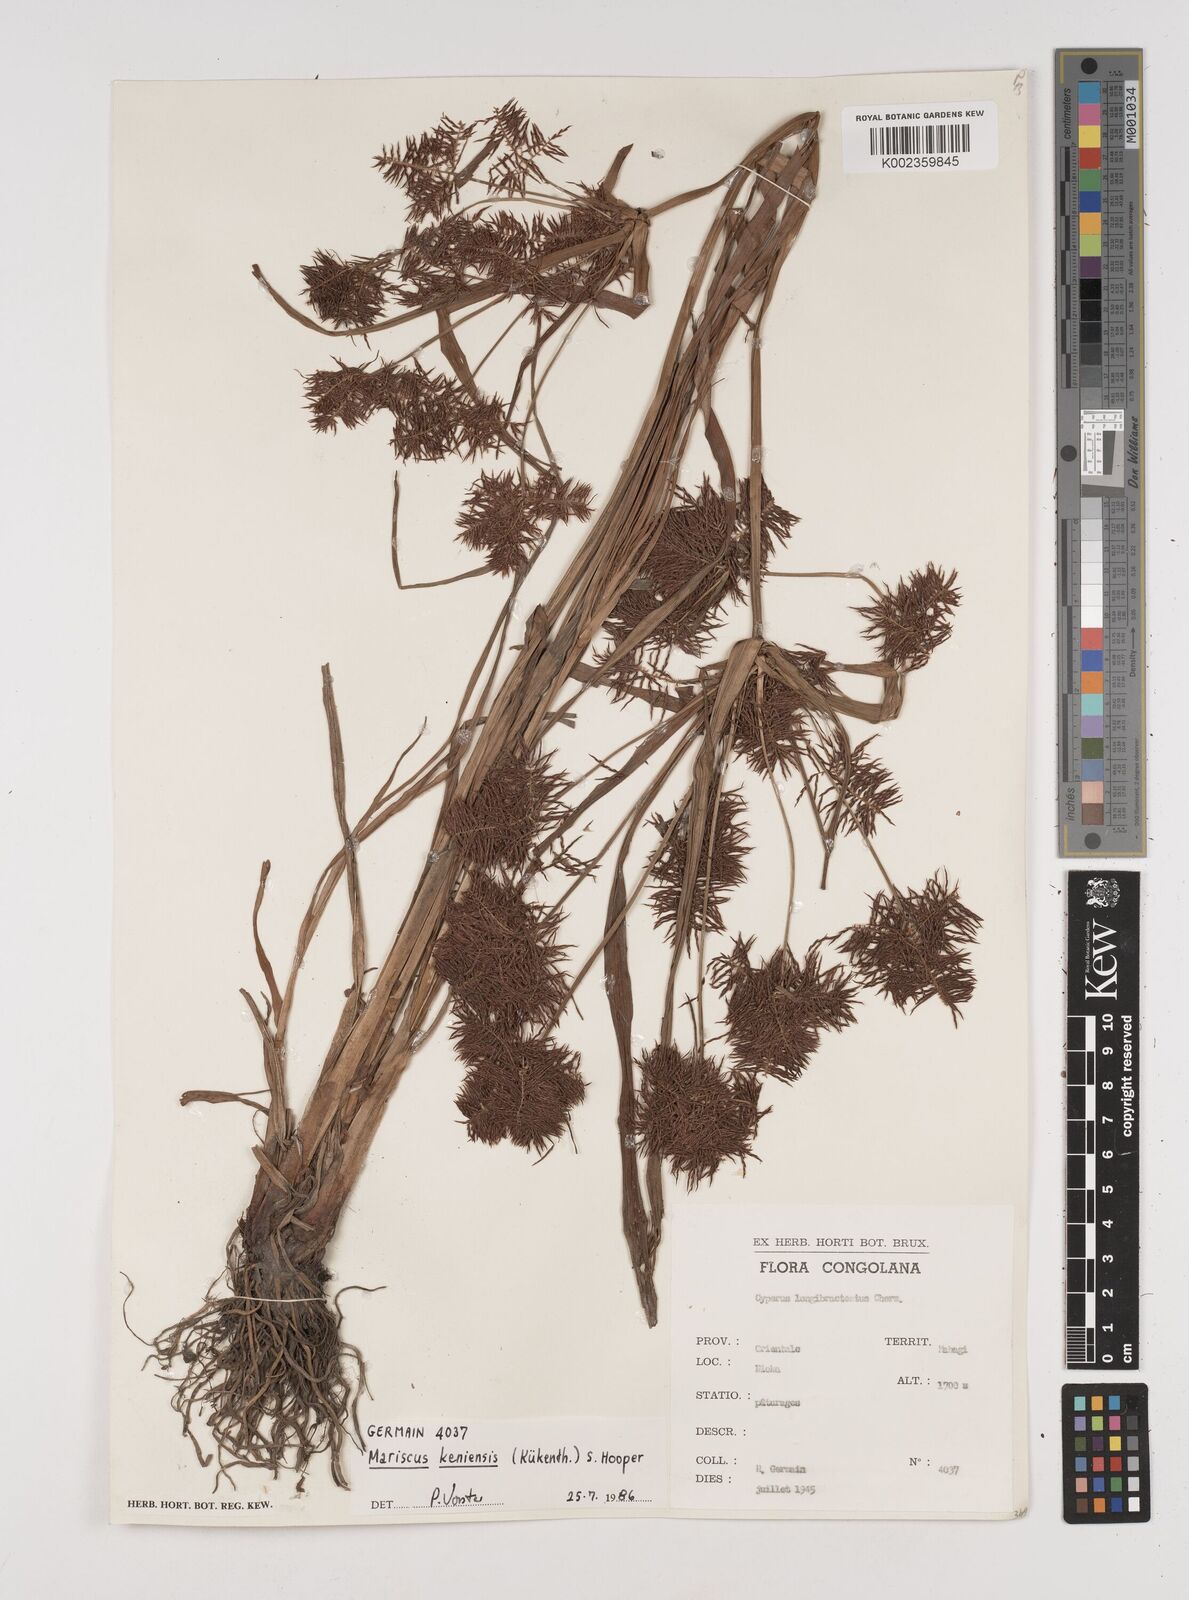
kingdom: Plantae
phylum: Tracheophyta
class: Liliopsida
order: Poales
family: Cyperaceae
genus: Cyperus
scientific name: Cyperus distans
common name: Slender cyperus
